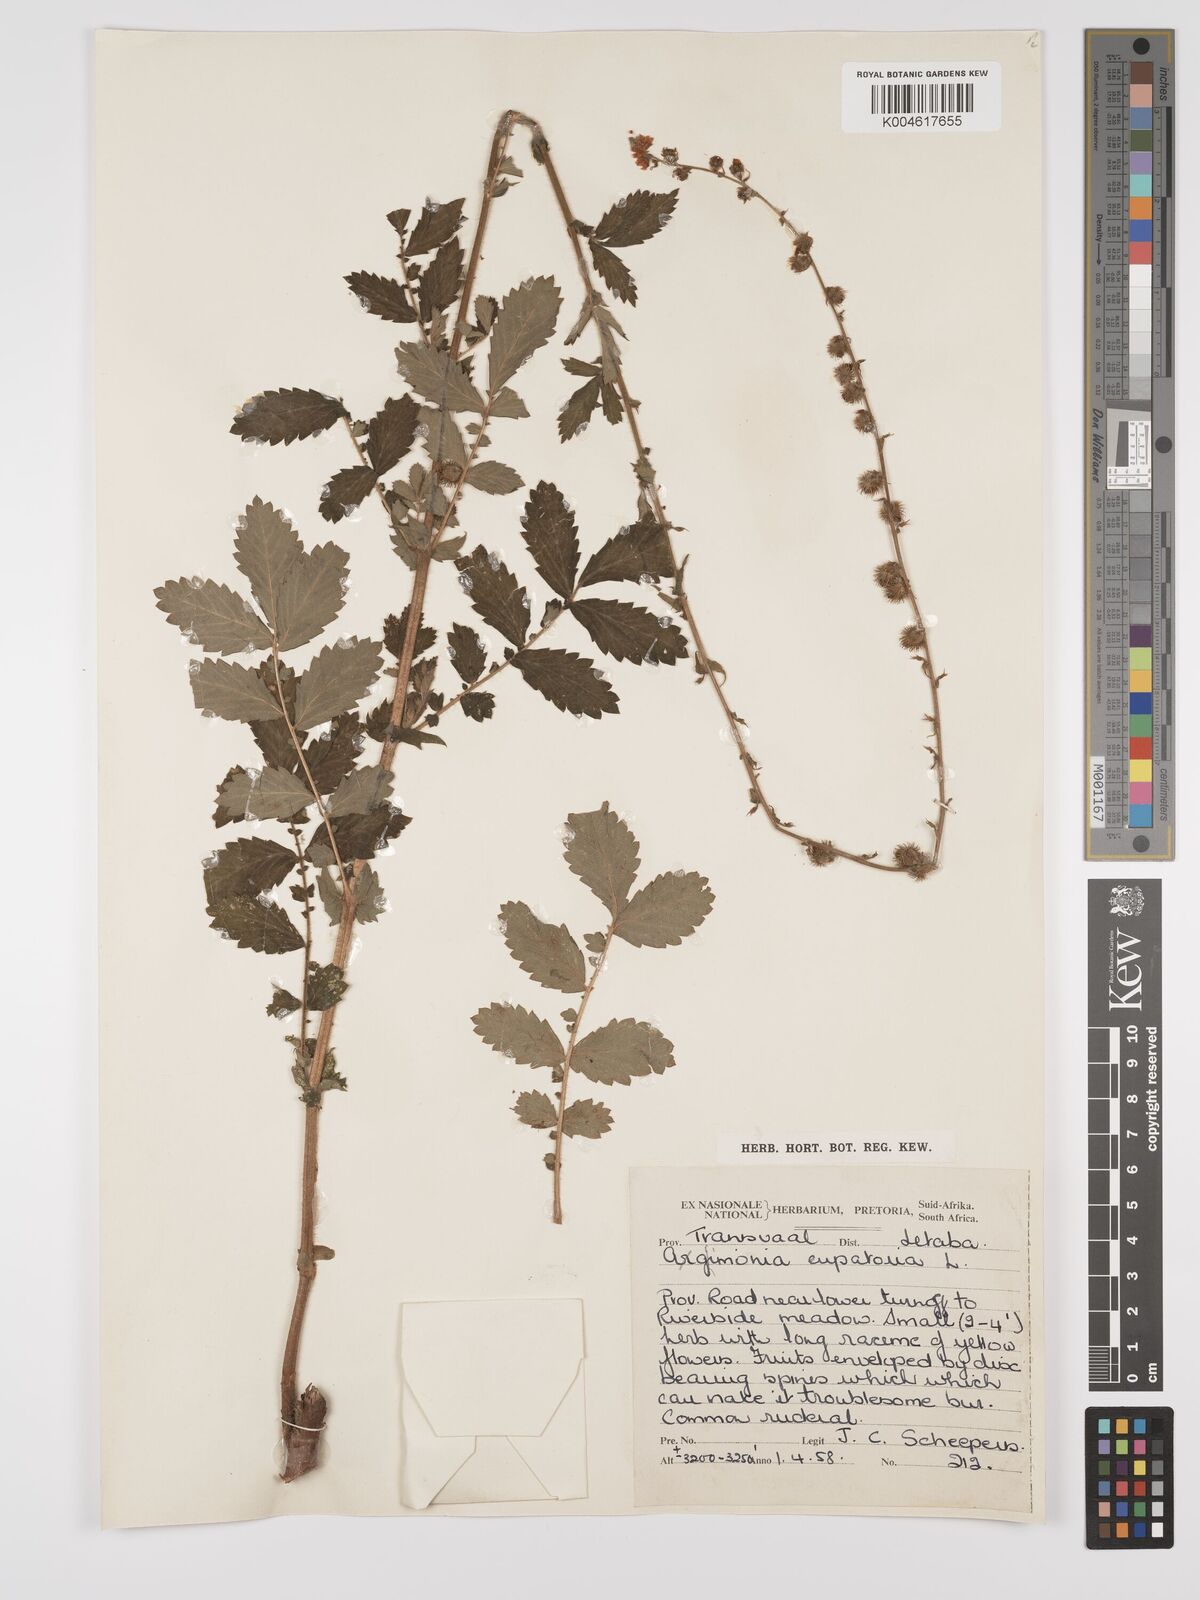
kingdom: Plantae
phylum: Tracheophyta
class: Magnoliopsida
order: Rosales
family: Rosaceae
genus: Agrimonia
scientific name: Agrimonia eupatoria
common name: Agrimony
